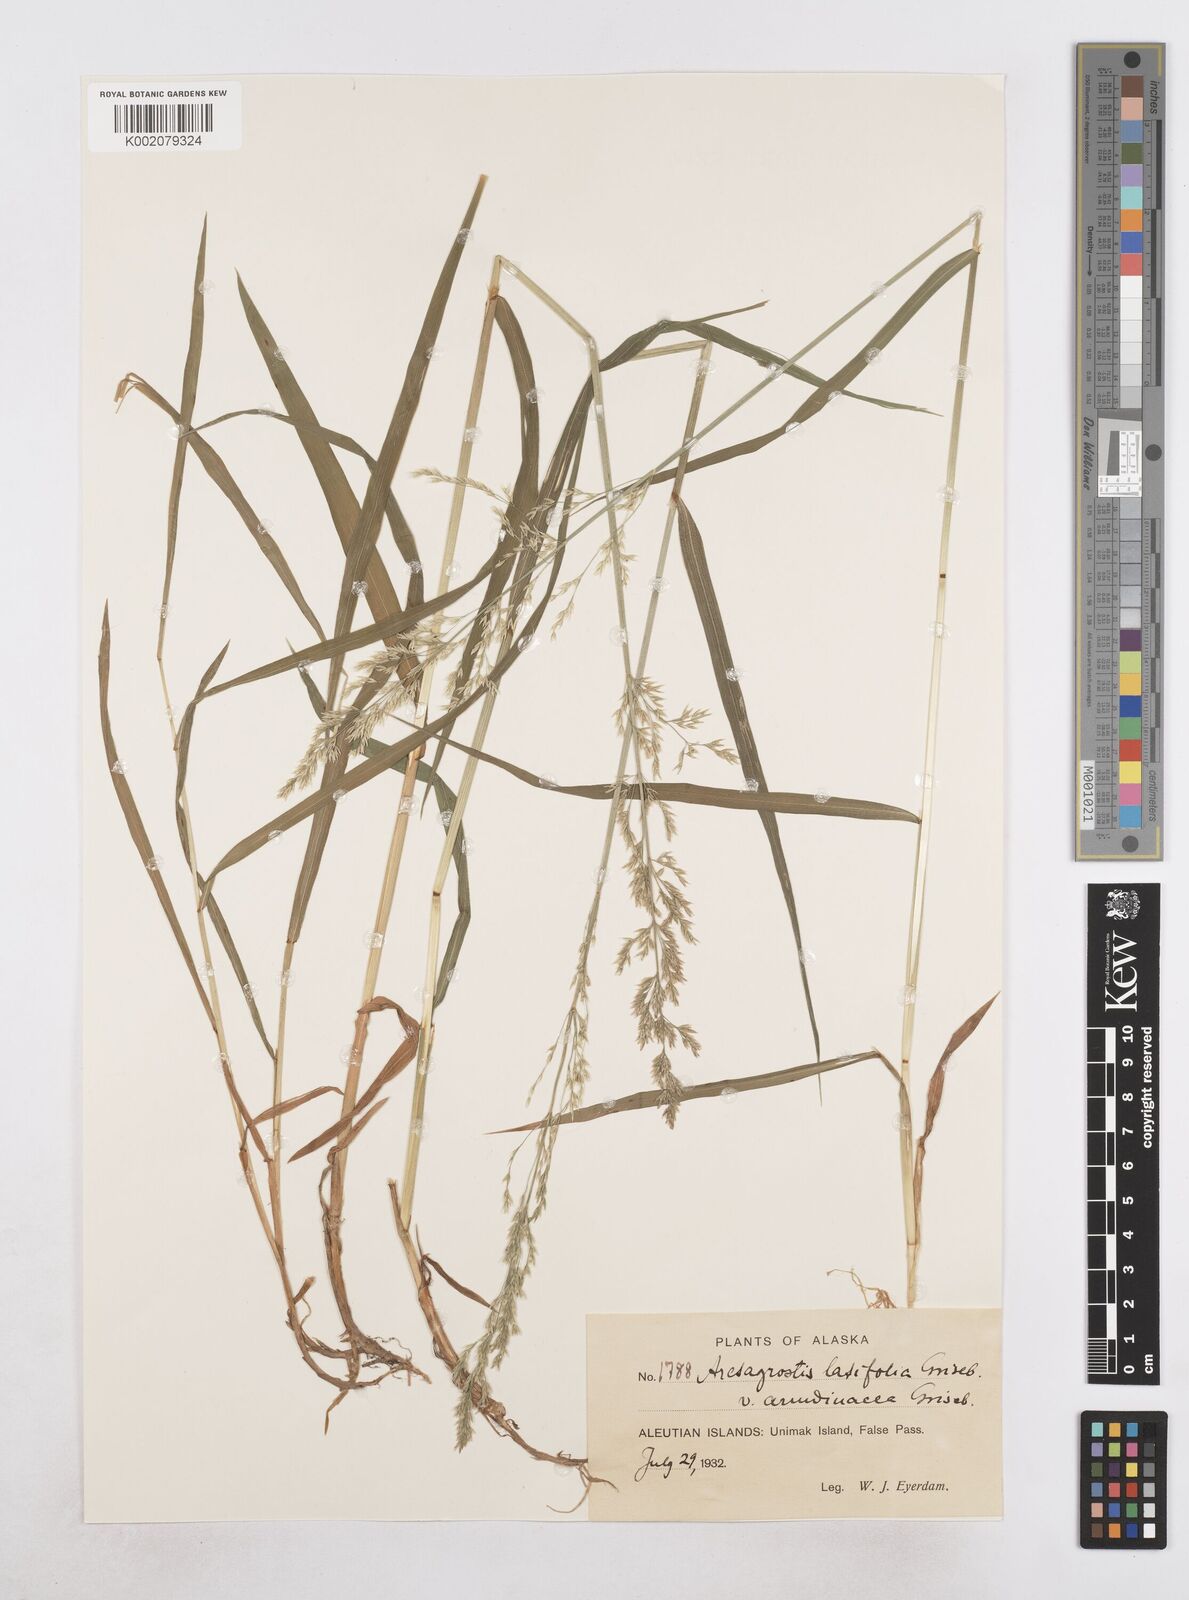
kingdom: Plantae
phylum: Tracheophyta
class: Liliopsida
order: Poales
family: Poaceae
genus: Arctagrostis
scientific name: Arctagrostis arundinacea
